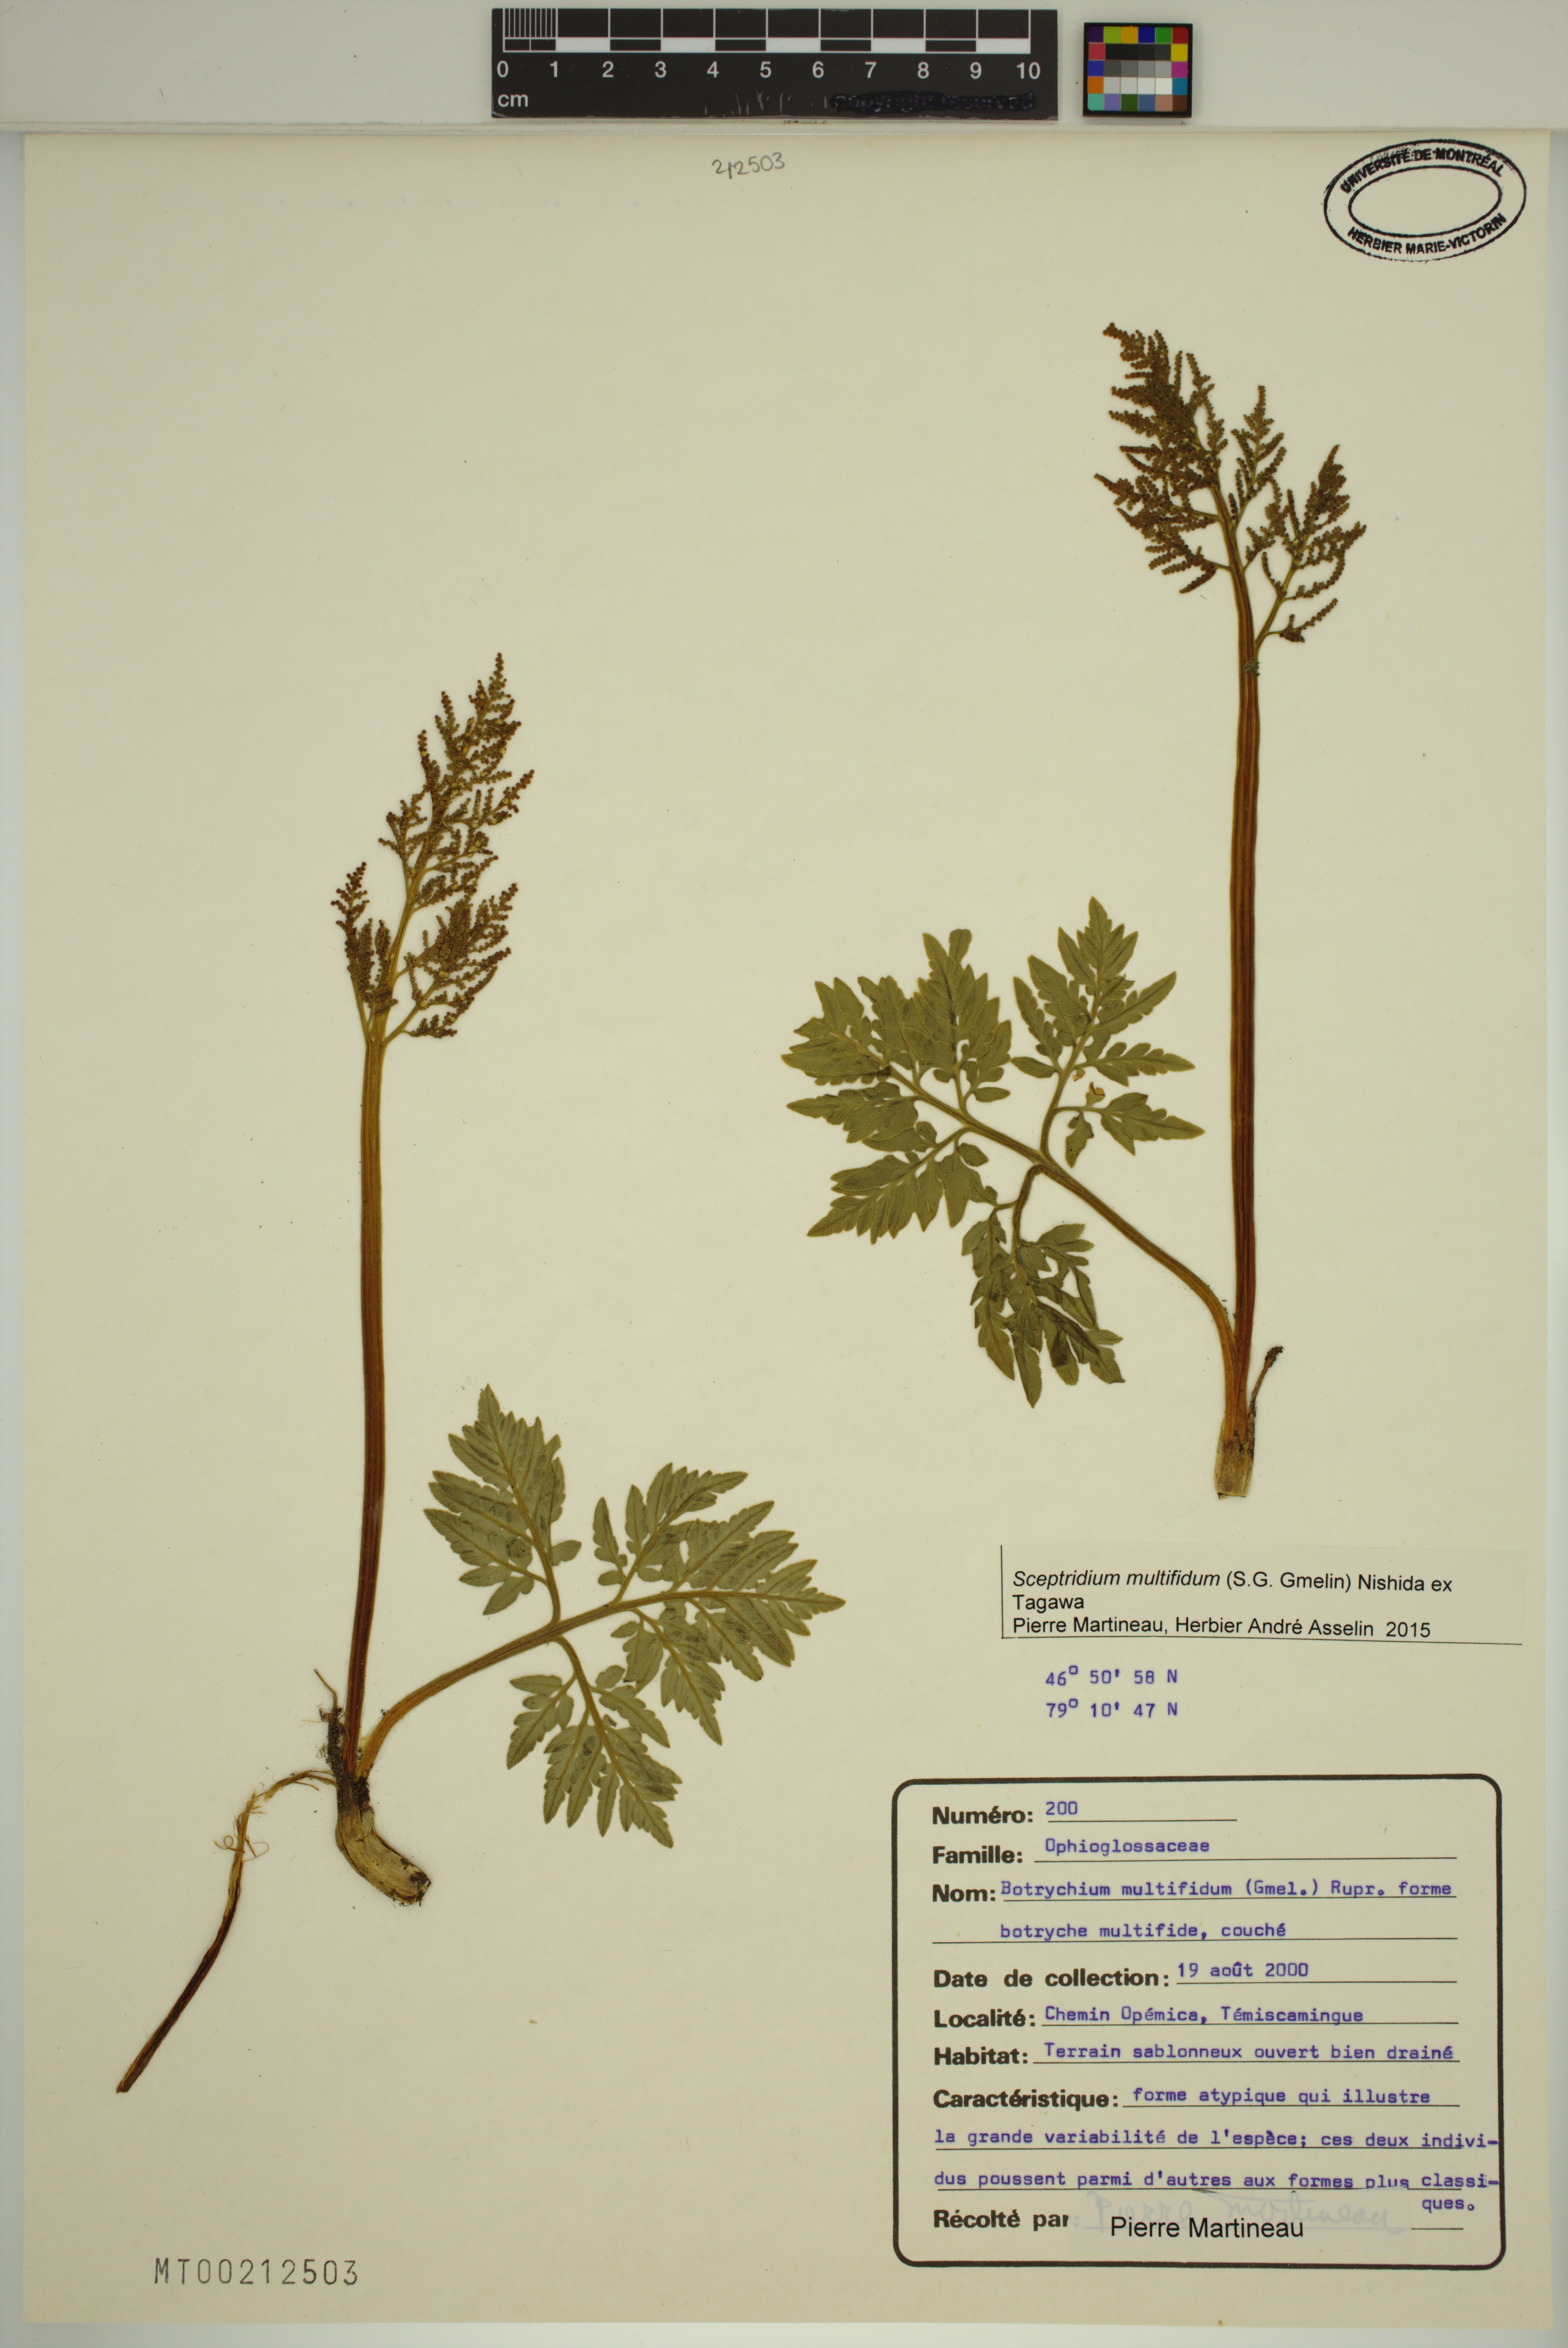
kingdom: Plantae
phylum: Tracheophyta
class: Polypodiopsida
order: Ophioglossales
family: Ophioglossaceae
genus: Sceptridium
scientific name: Sceptridium multifidum
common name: Leathery grape fern
